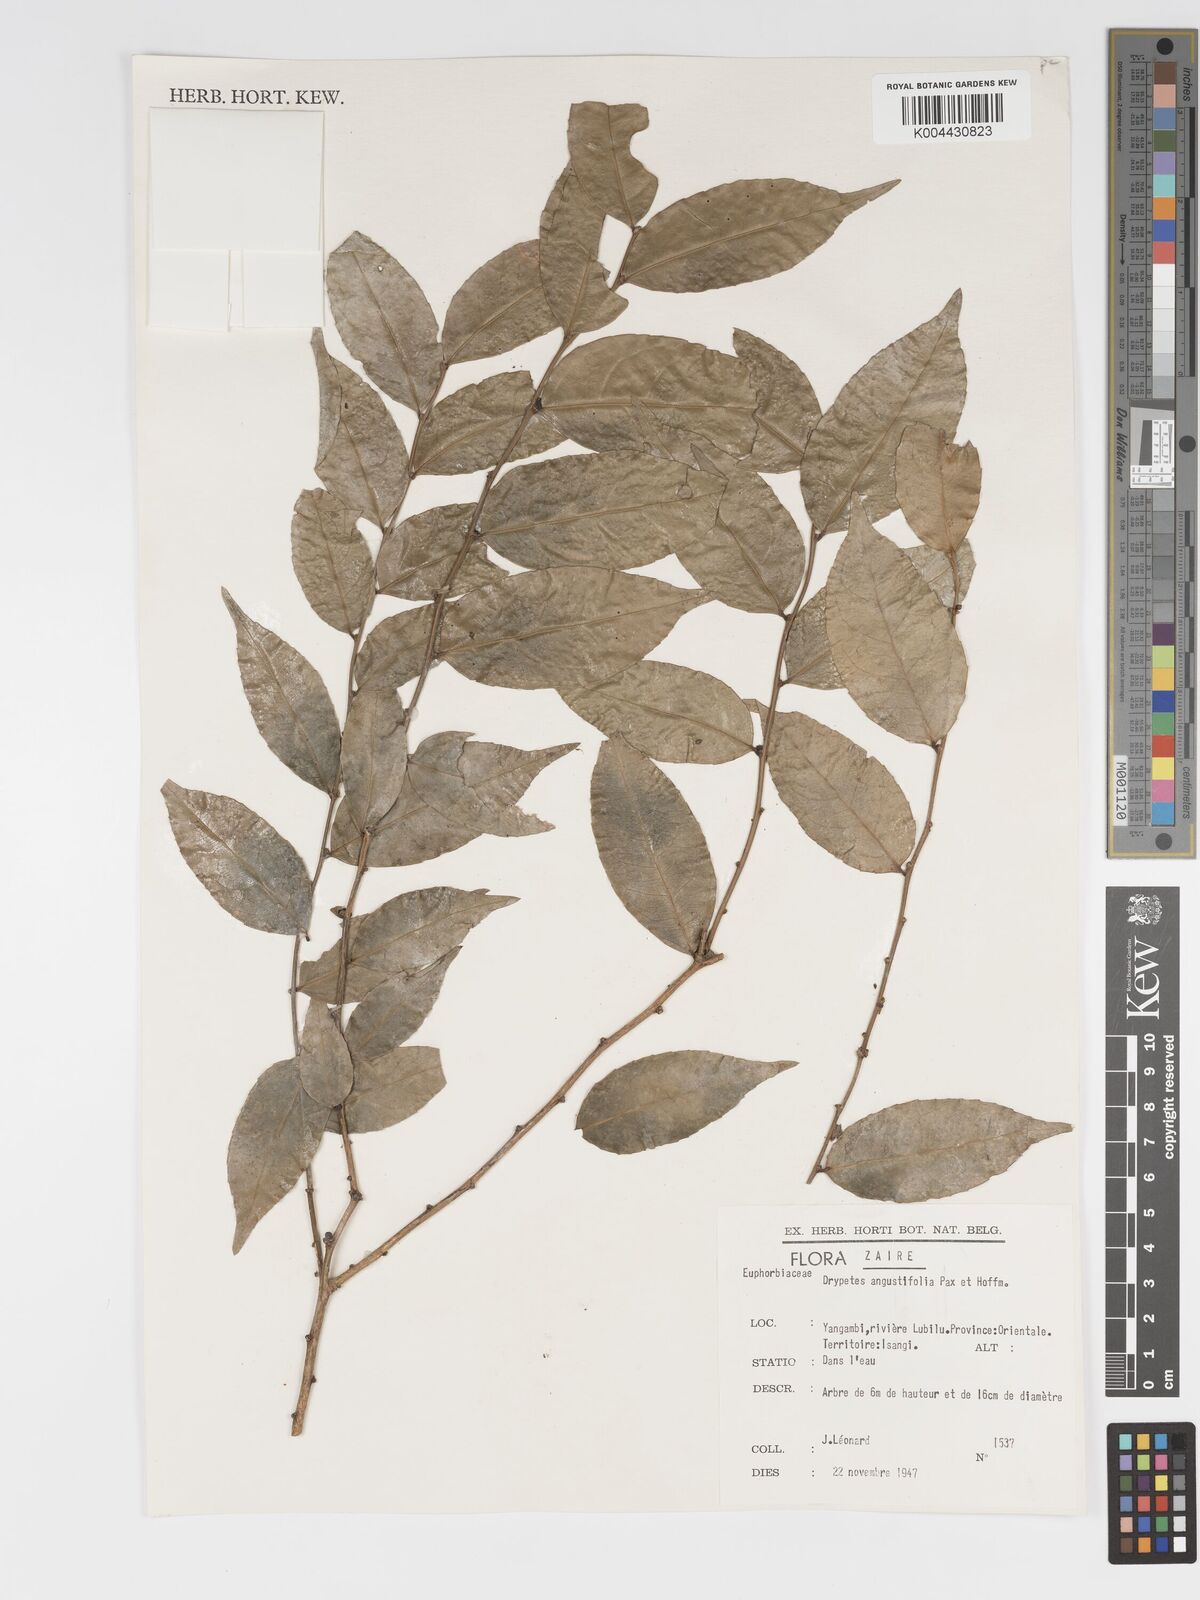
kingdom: Plantae
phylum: Tracheophyta
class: Magnoliopsida
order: Malpighiales
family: Putranjivaceae
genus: Drypetes
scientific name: Drypetes angustifolia
